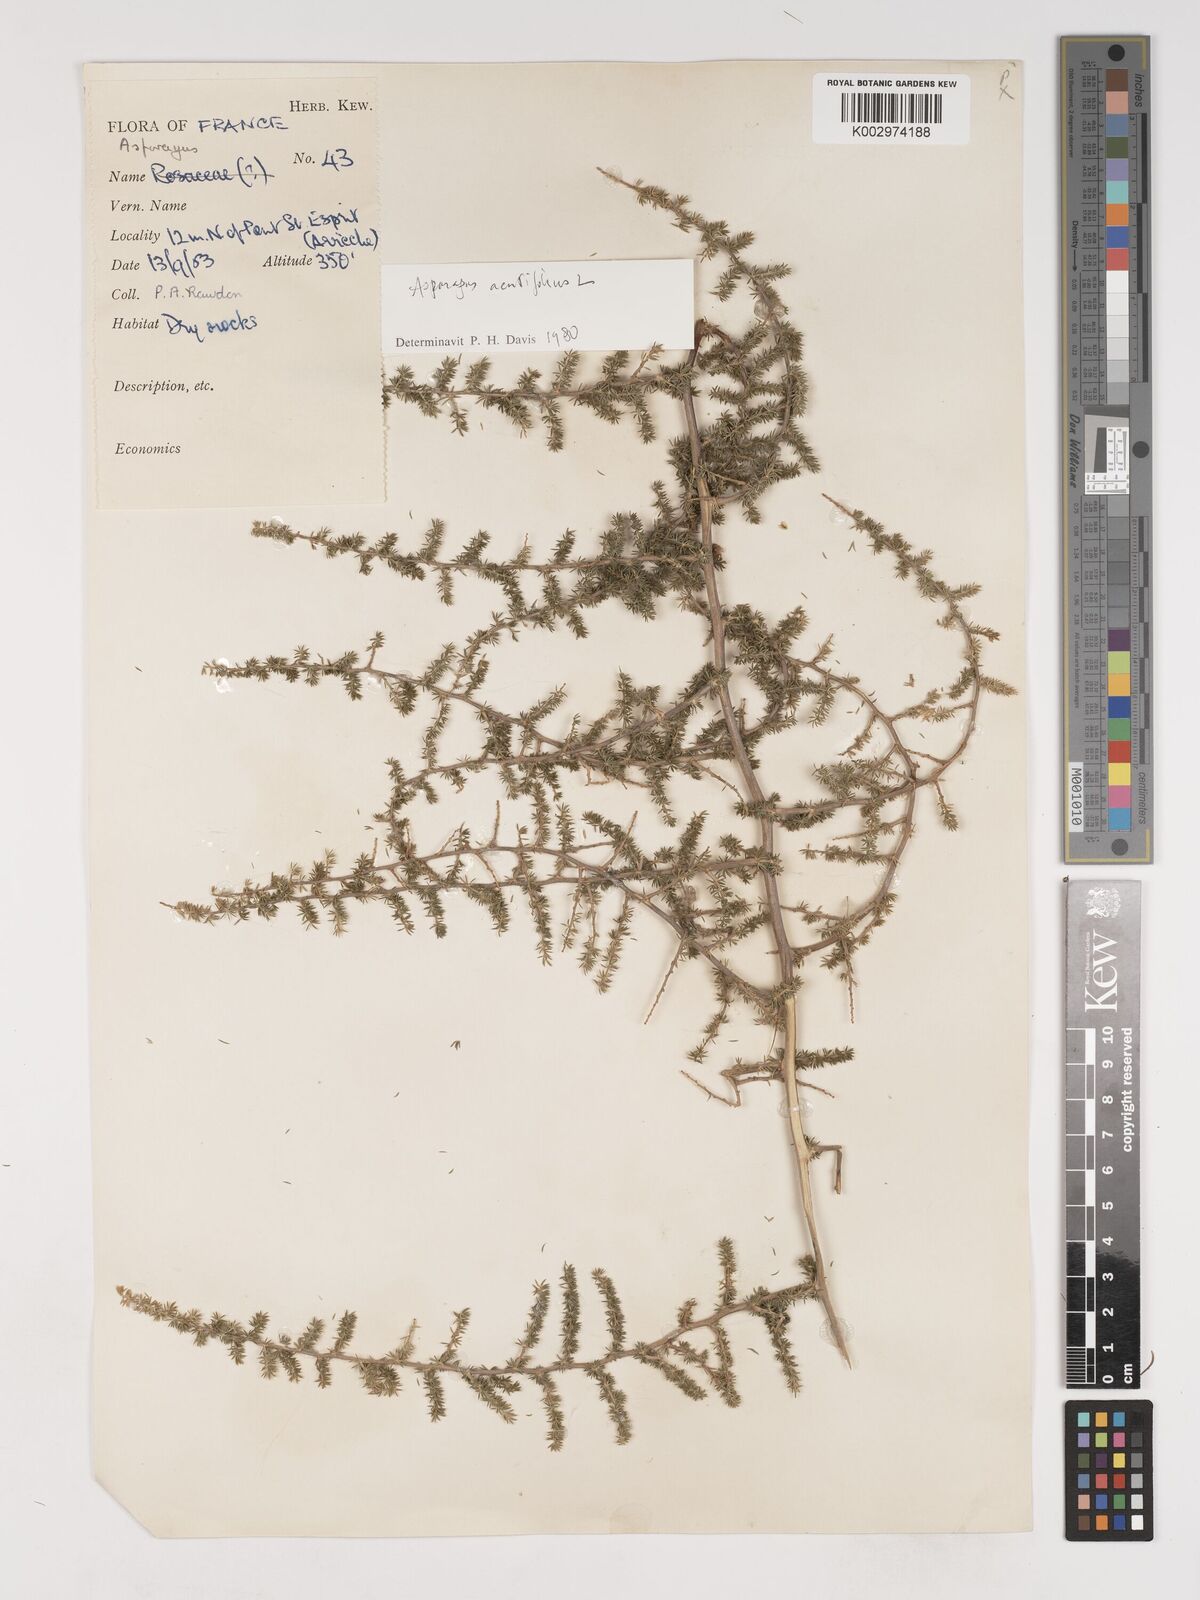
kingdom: Plantae
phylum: Tracheophyta
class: Liliopsida
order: Asparagales
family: Asparagaceae
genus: Asparagus
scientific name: Asparagus
